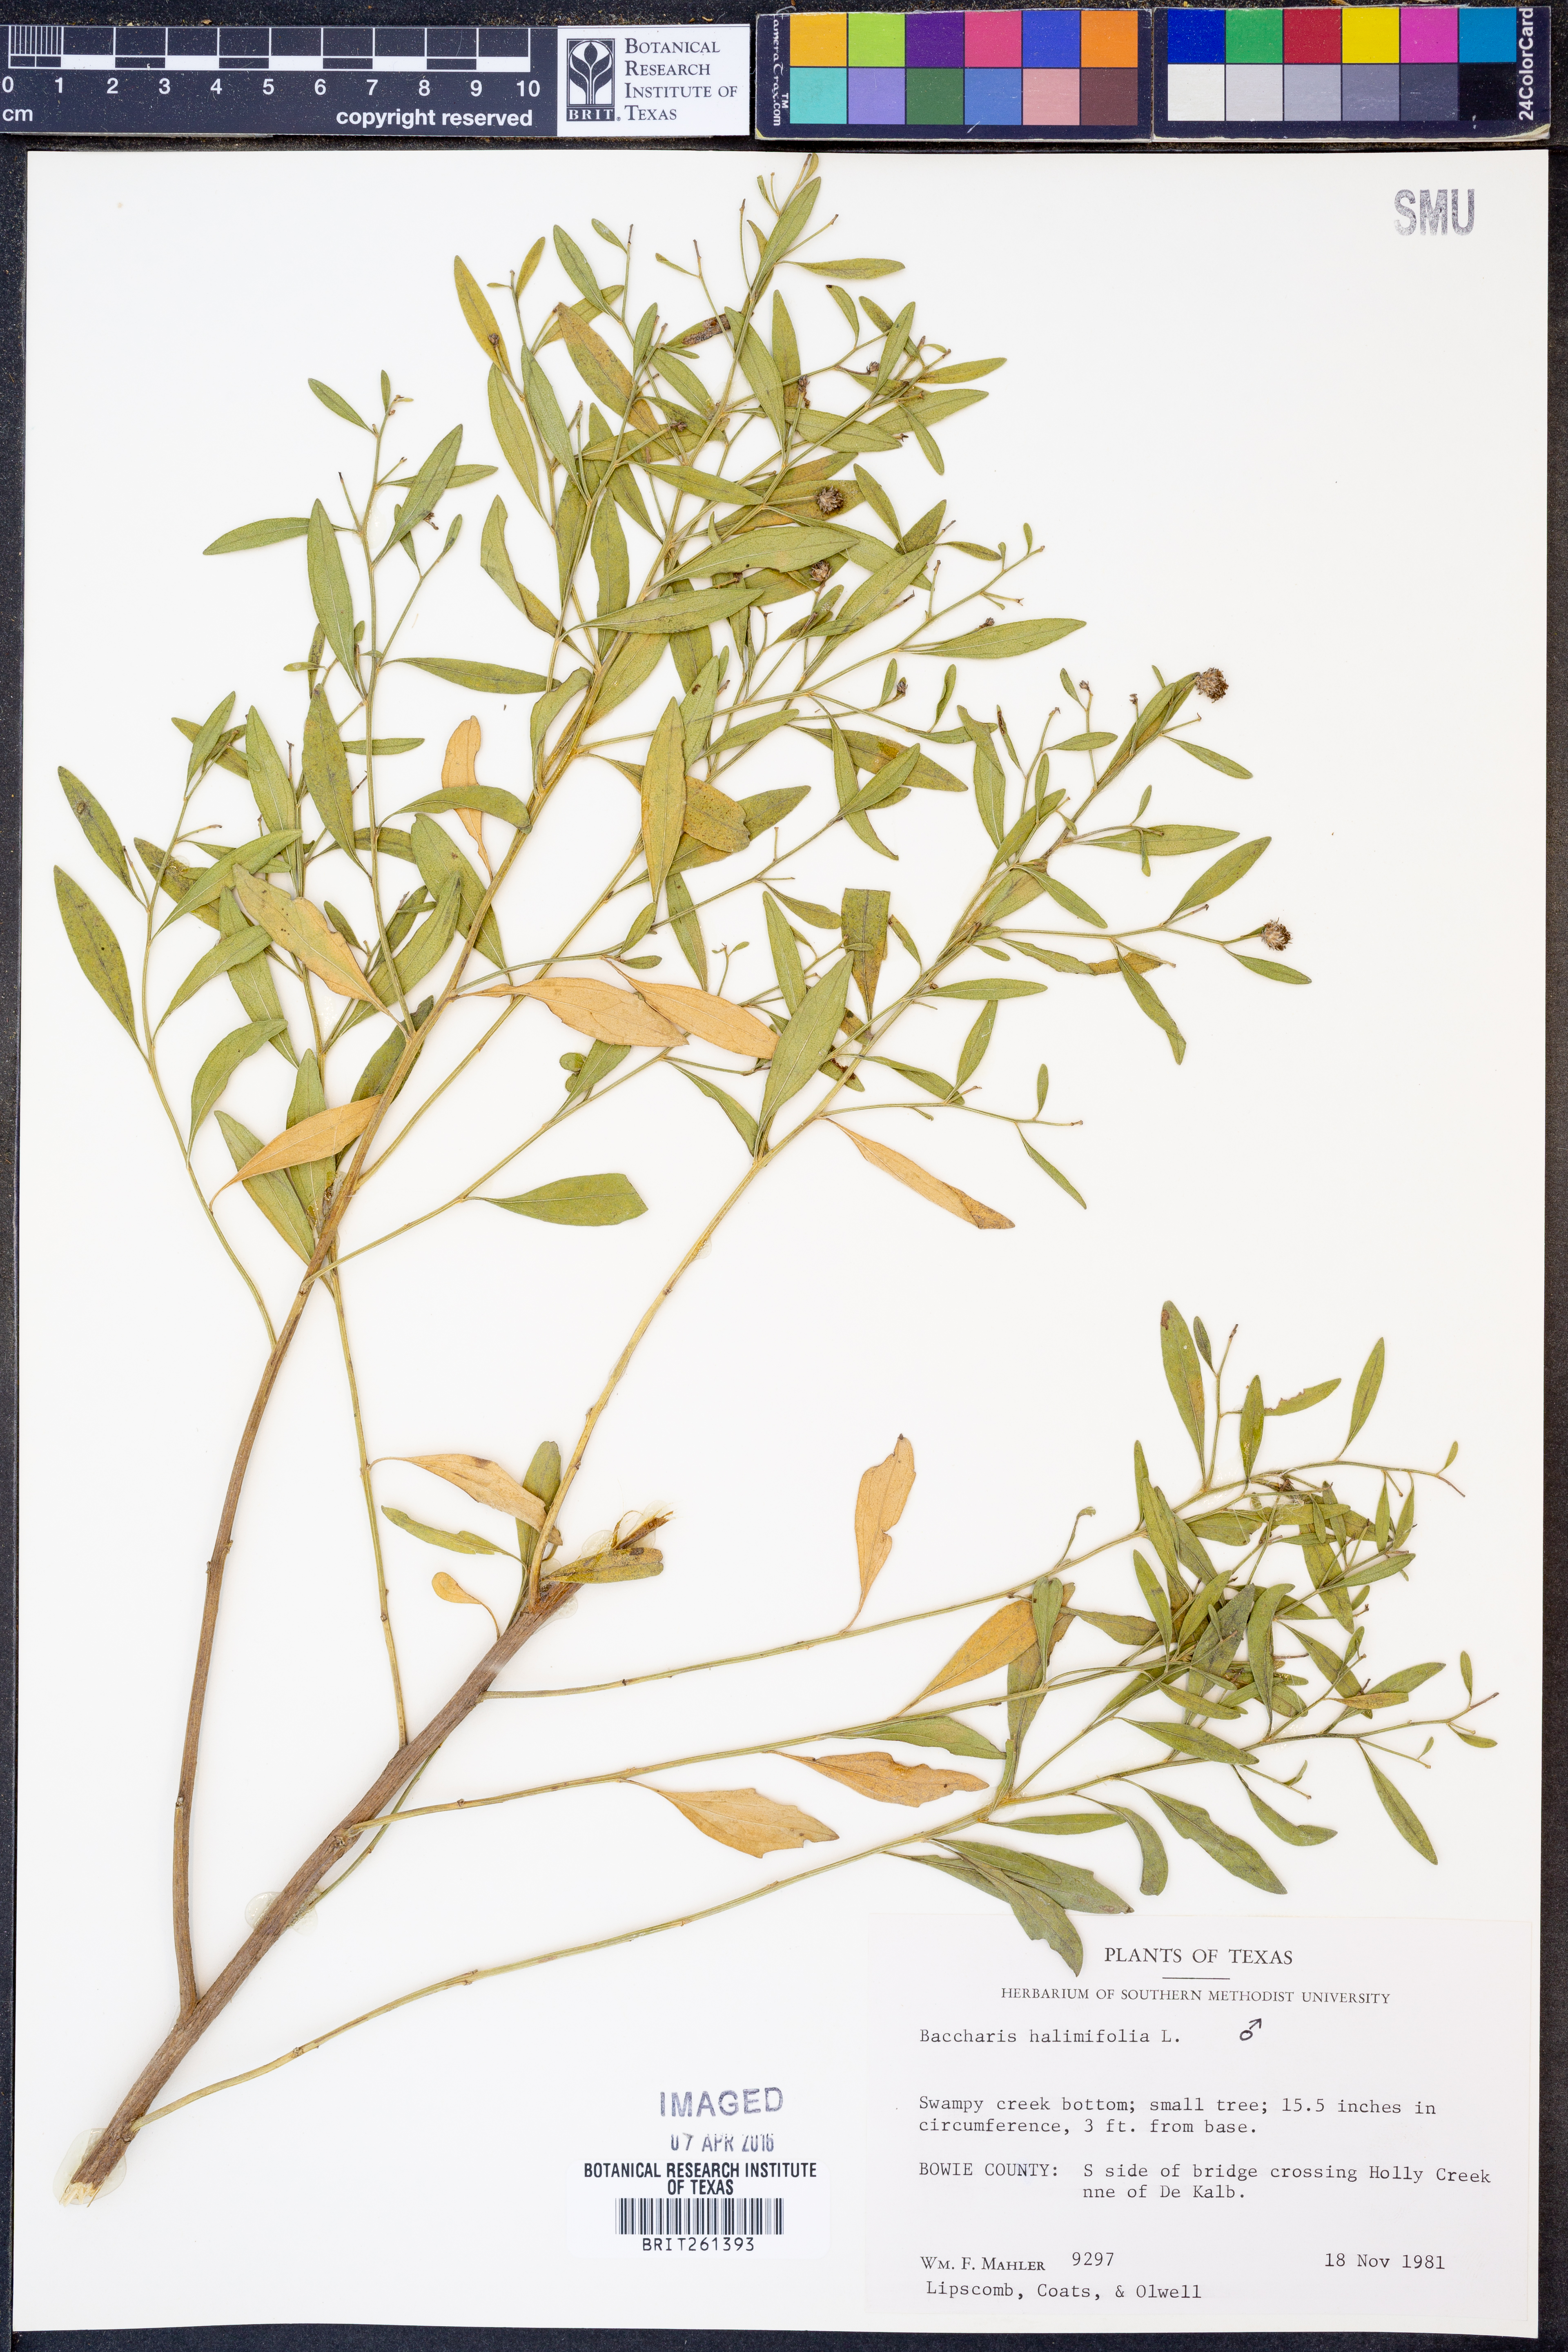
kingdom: Plantae
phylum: Tracheophyta
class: Magnoliopsida
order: Asterales
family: Asteraceae
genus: Nidorella
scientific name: Nidorella ivifolia
